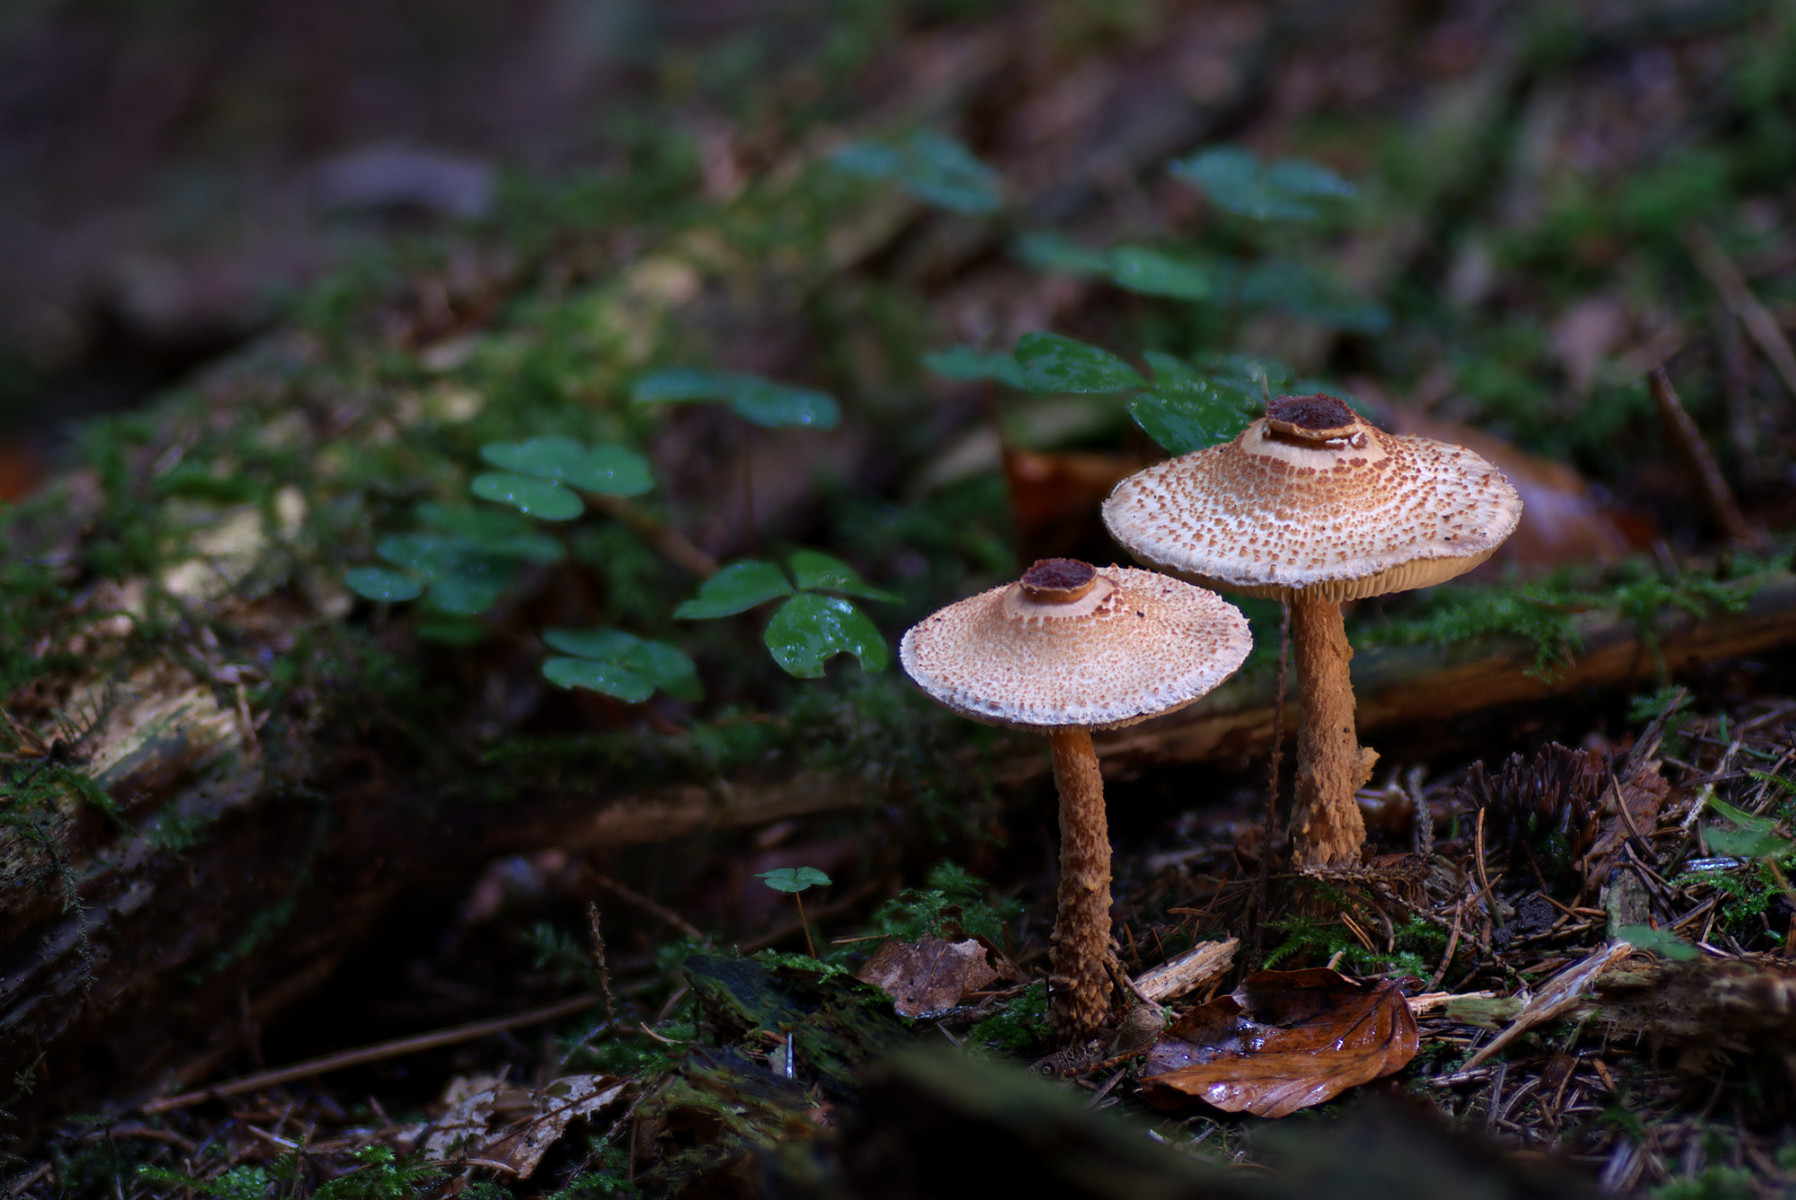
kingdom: Fungi
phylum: Basidiomycota
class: Agaricomycetes
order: Agaricales
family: Agaricaceae
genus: Lepiota
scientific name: Lepiota magnispora
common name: gulfnugget parasolhat
